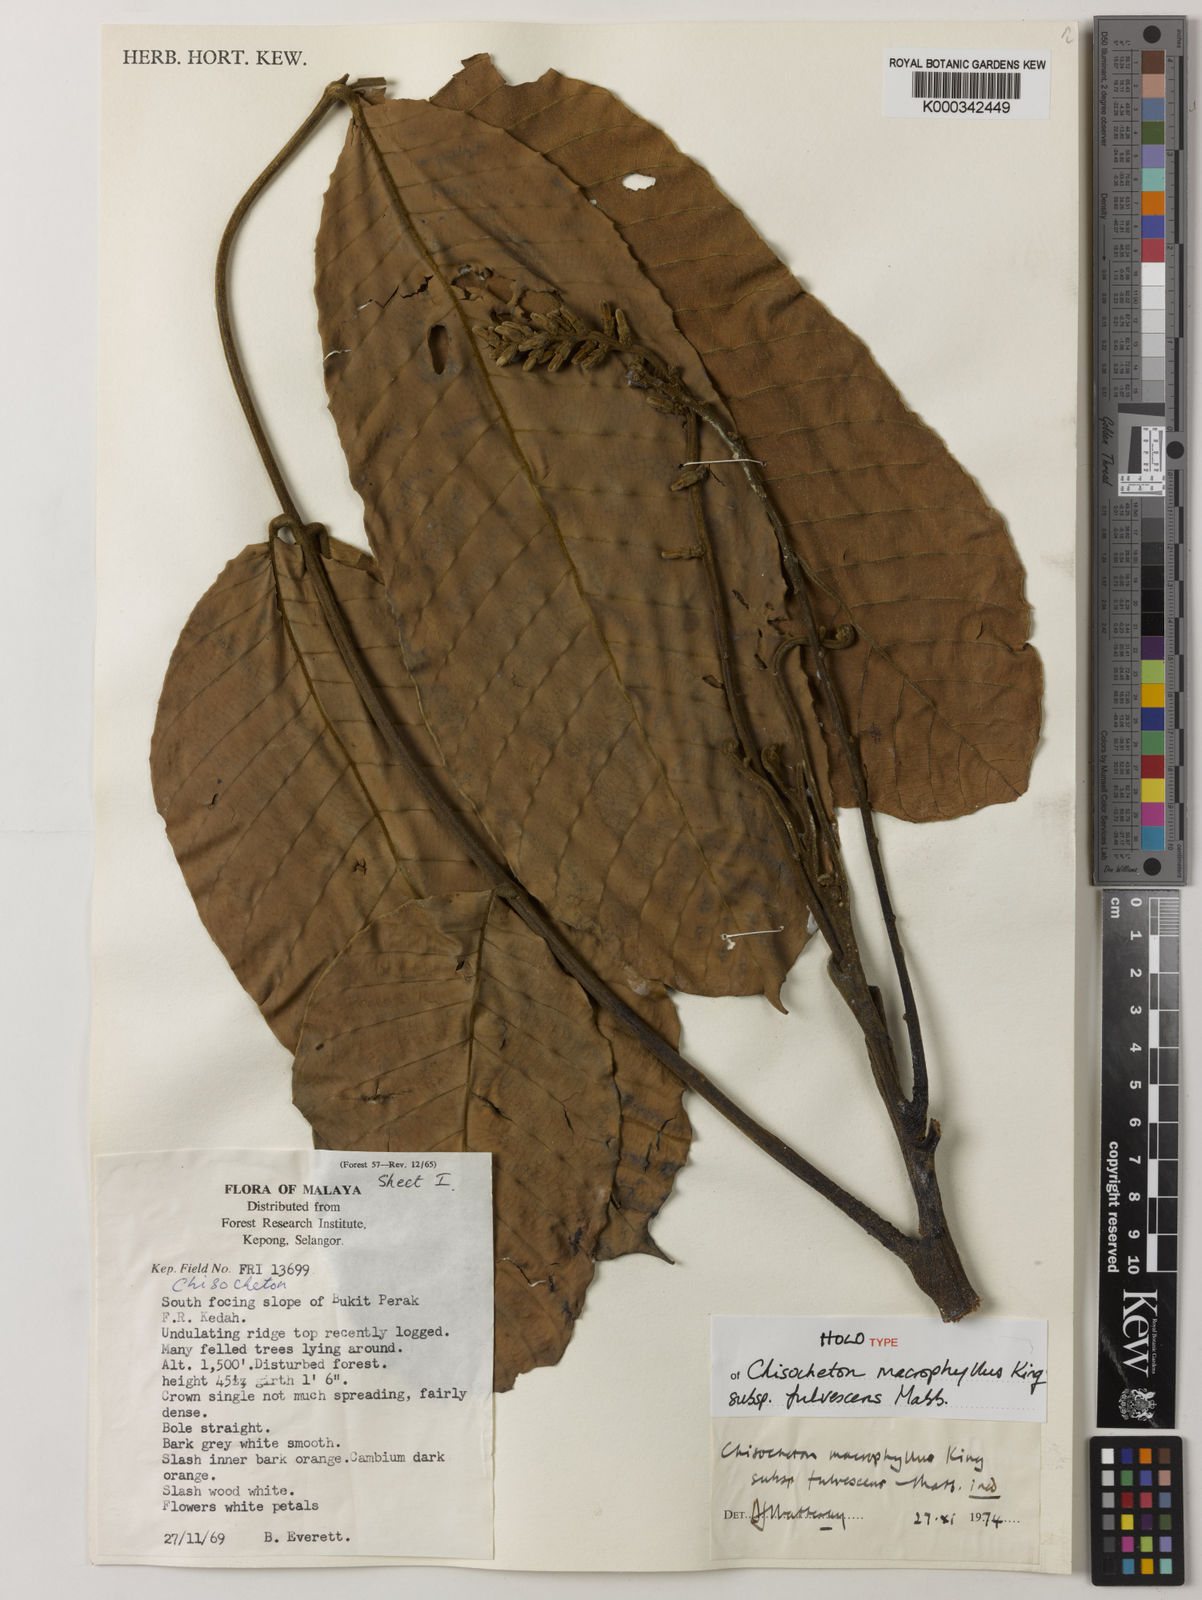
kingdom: Plantae
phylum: Tracheophyta
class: Magnoliopsida
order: Sapindales
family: Meliaceae
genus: Chisocheton
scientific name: Chisocheton macrophyllus
